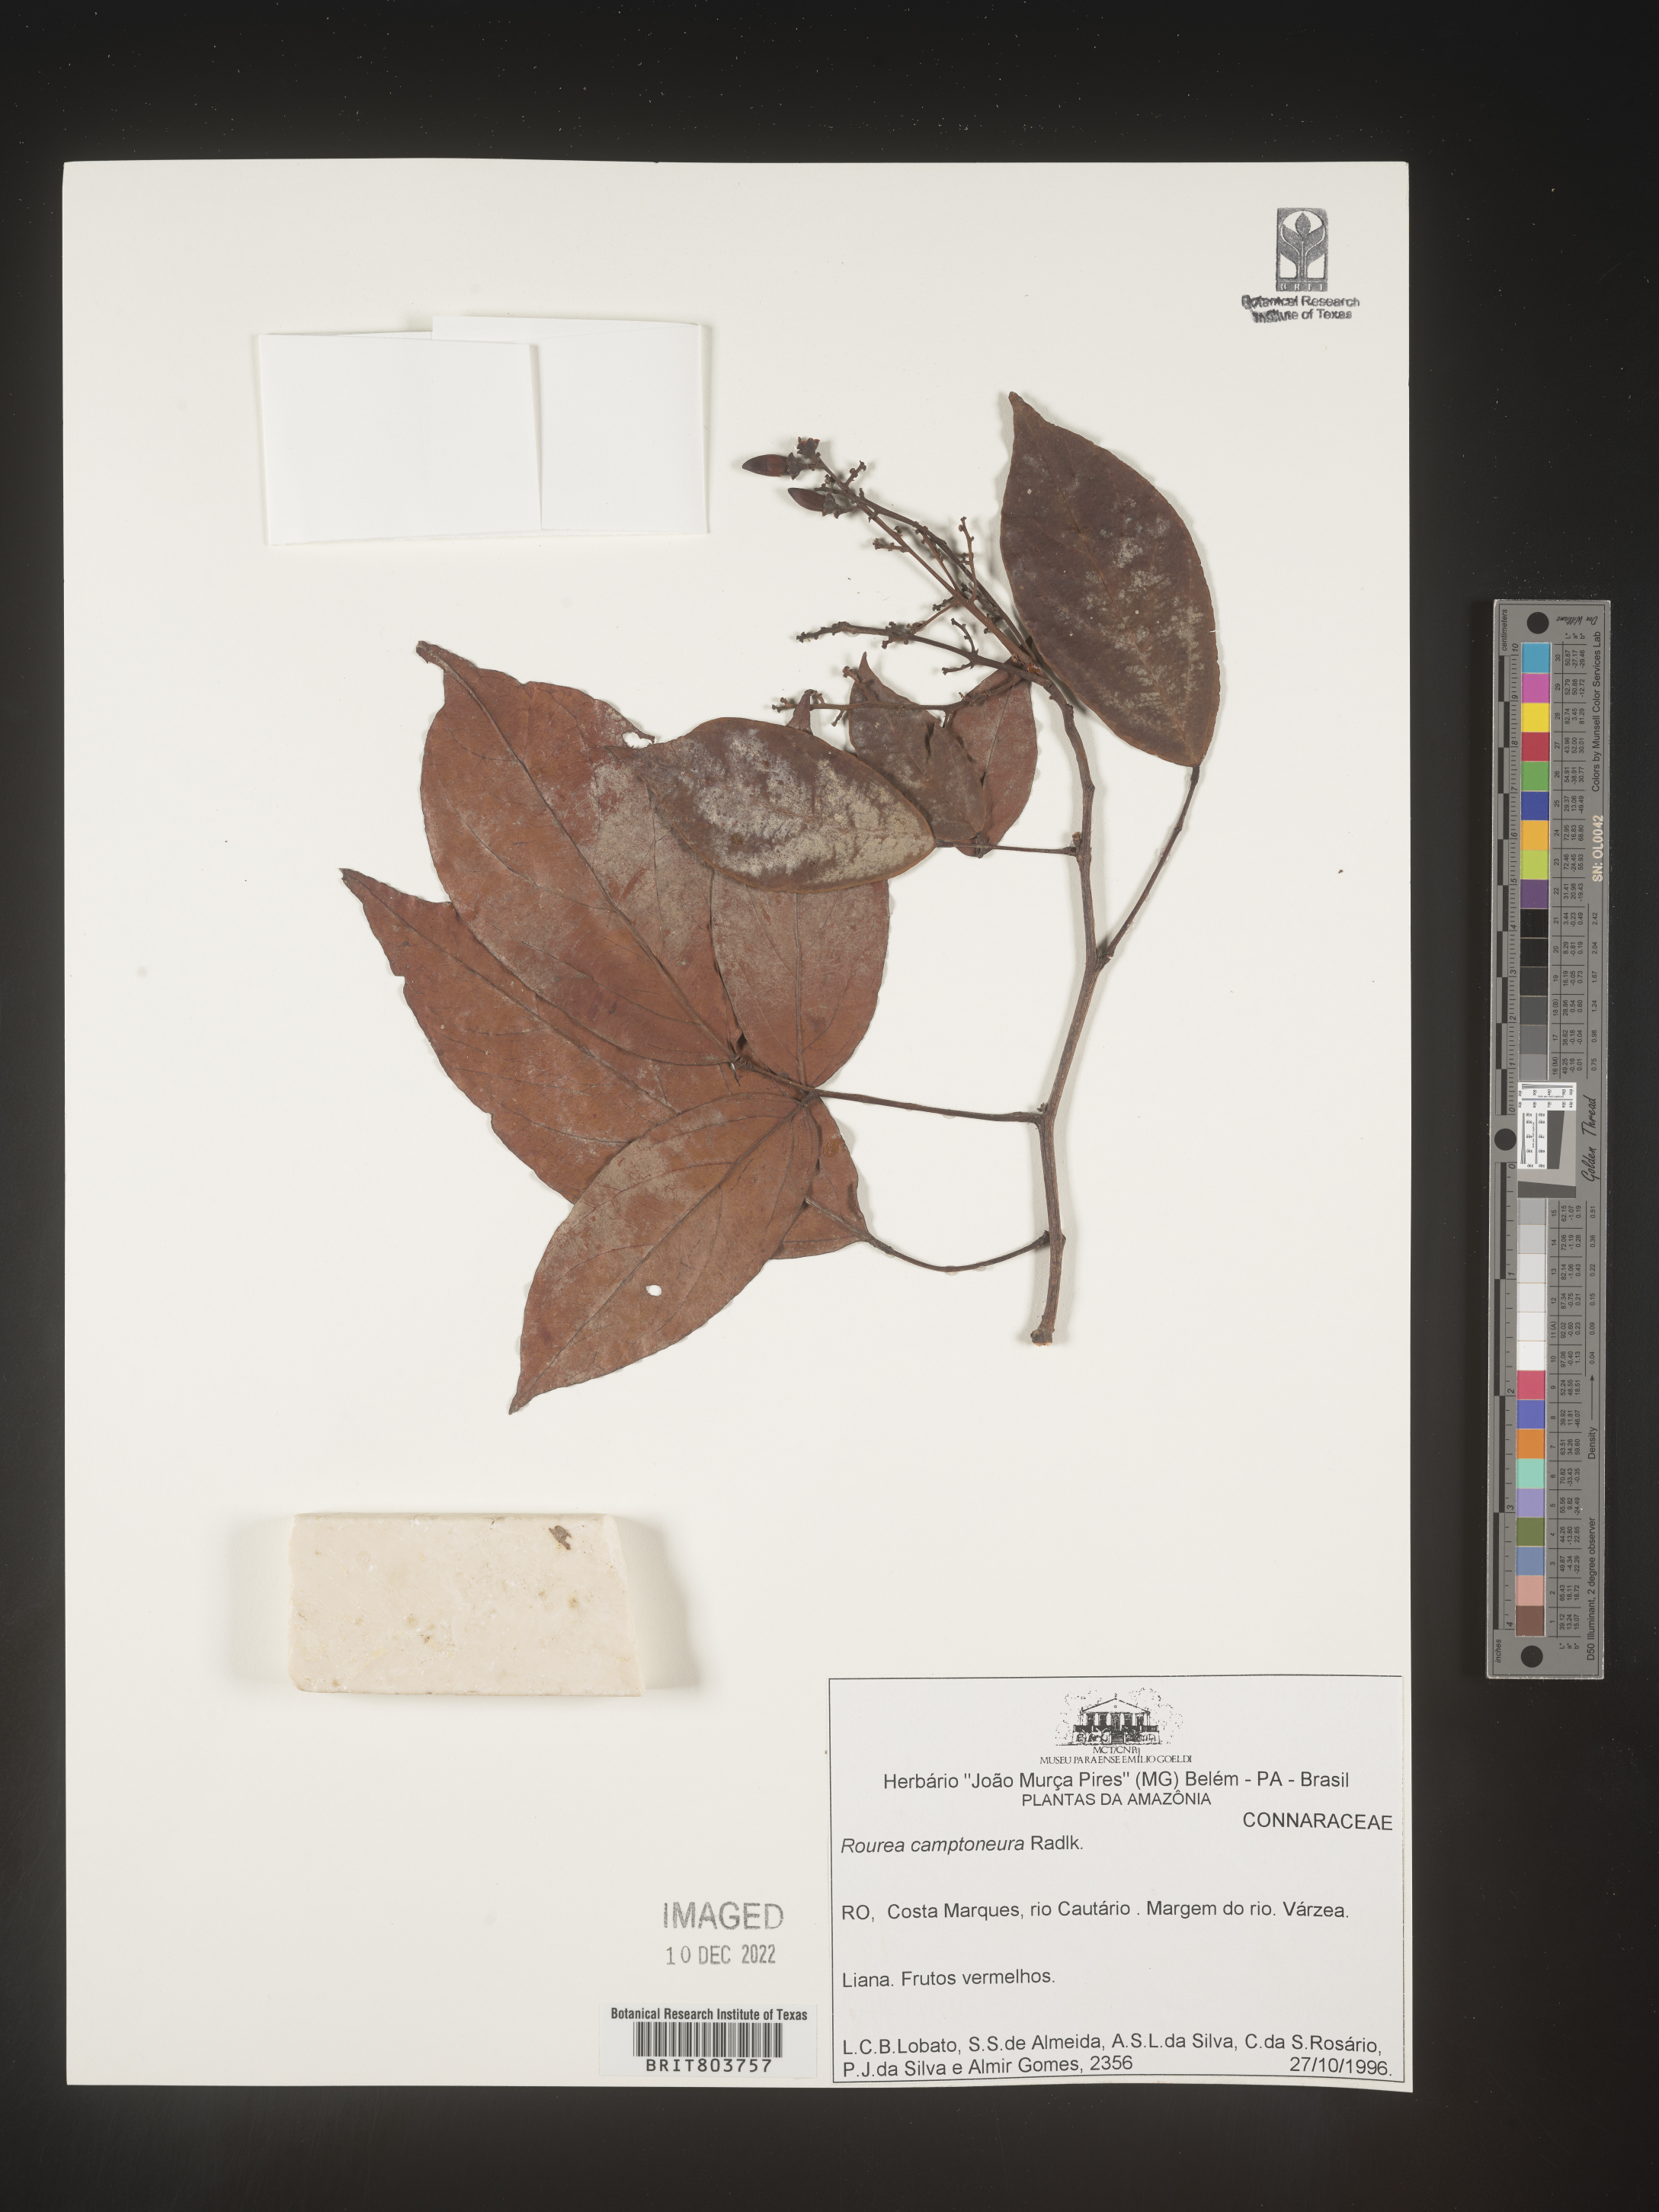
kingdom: Plantae
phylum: Tracheophyta
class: Magnoliopsida
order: Oxalidales
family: Connaraceae
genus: Rourea
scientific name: Rourea
